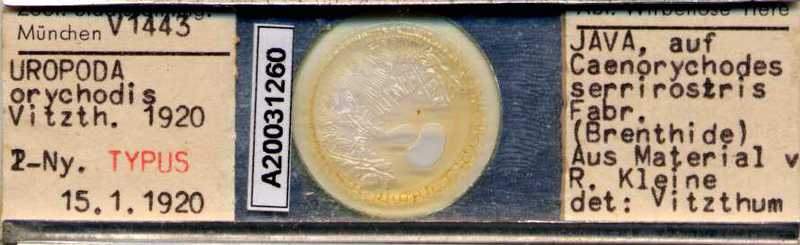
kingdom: Animalia
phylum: Arthropoda
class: Arachnida
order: Mesostigmata
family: Uropodidae
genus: Uropoda
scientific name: Uropoda
